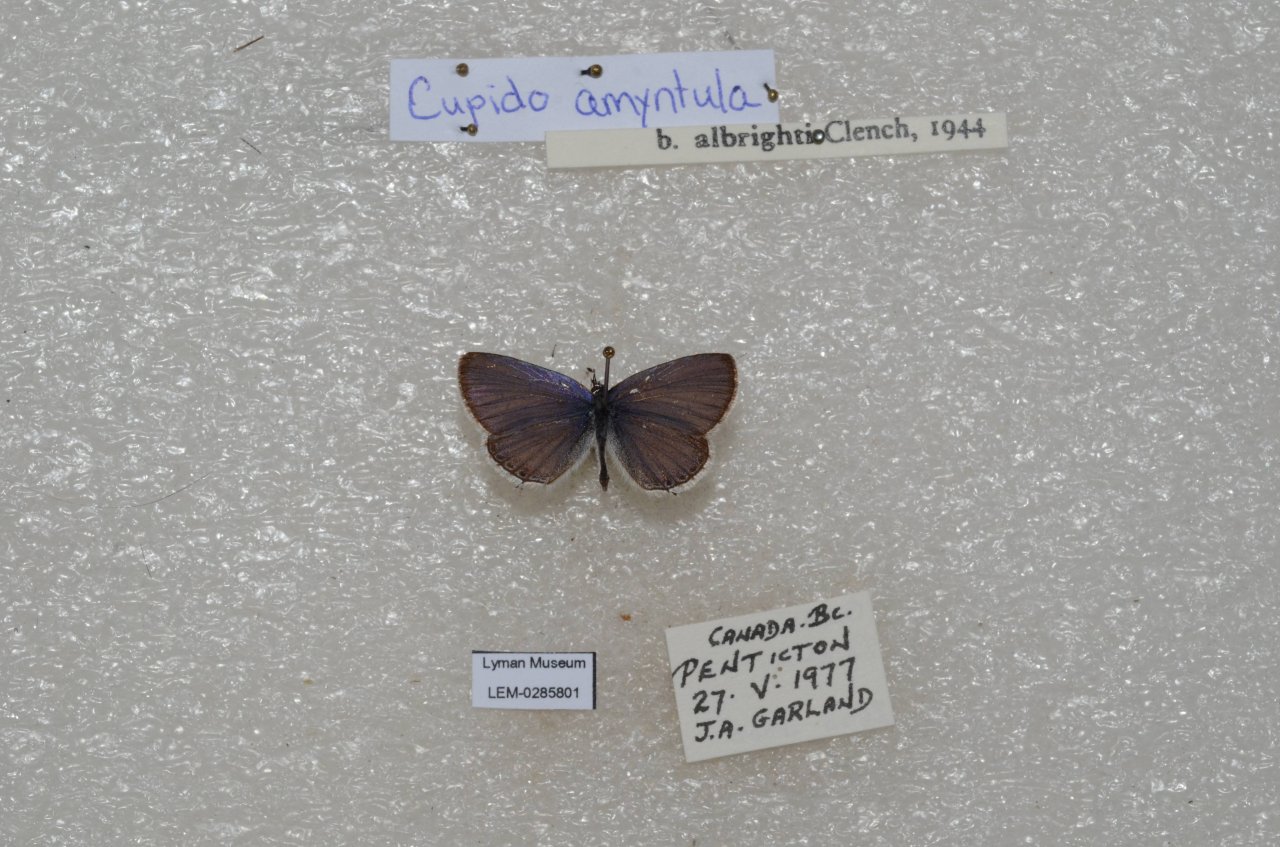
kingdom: Animalia
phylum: Arthropoda
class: Insecta
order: Lepidoptera
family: Lycaenidae
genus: Elkalyce
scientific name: Elkalyce amyntula
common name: Western Tailed-Blue
